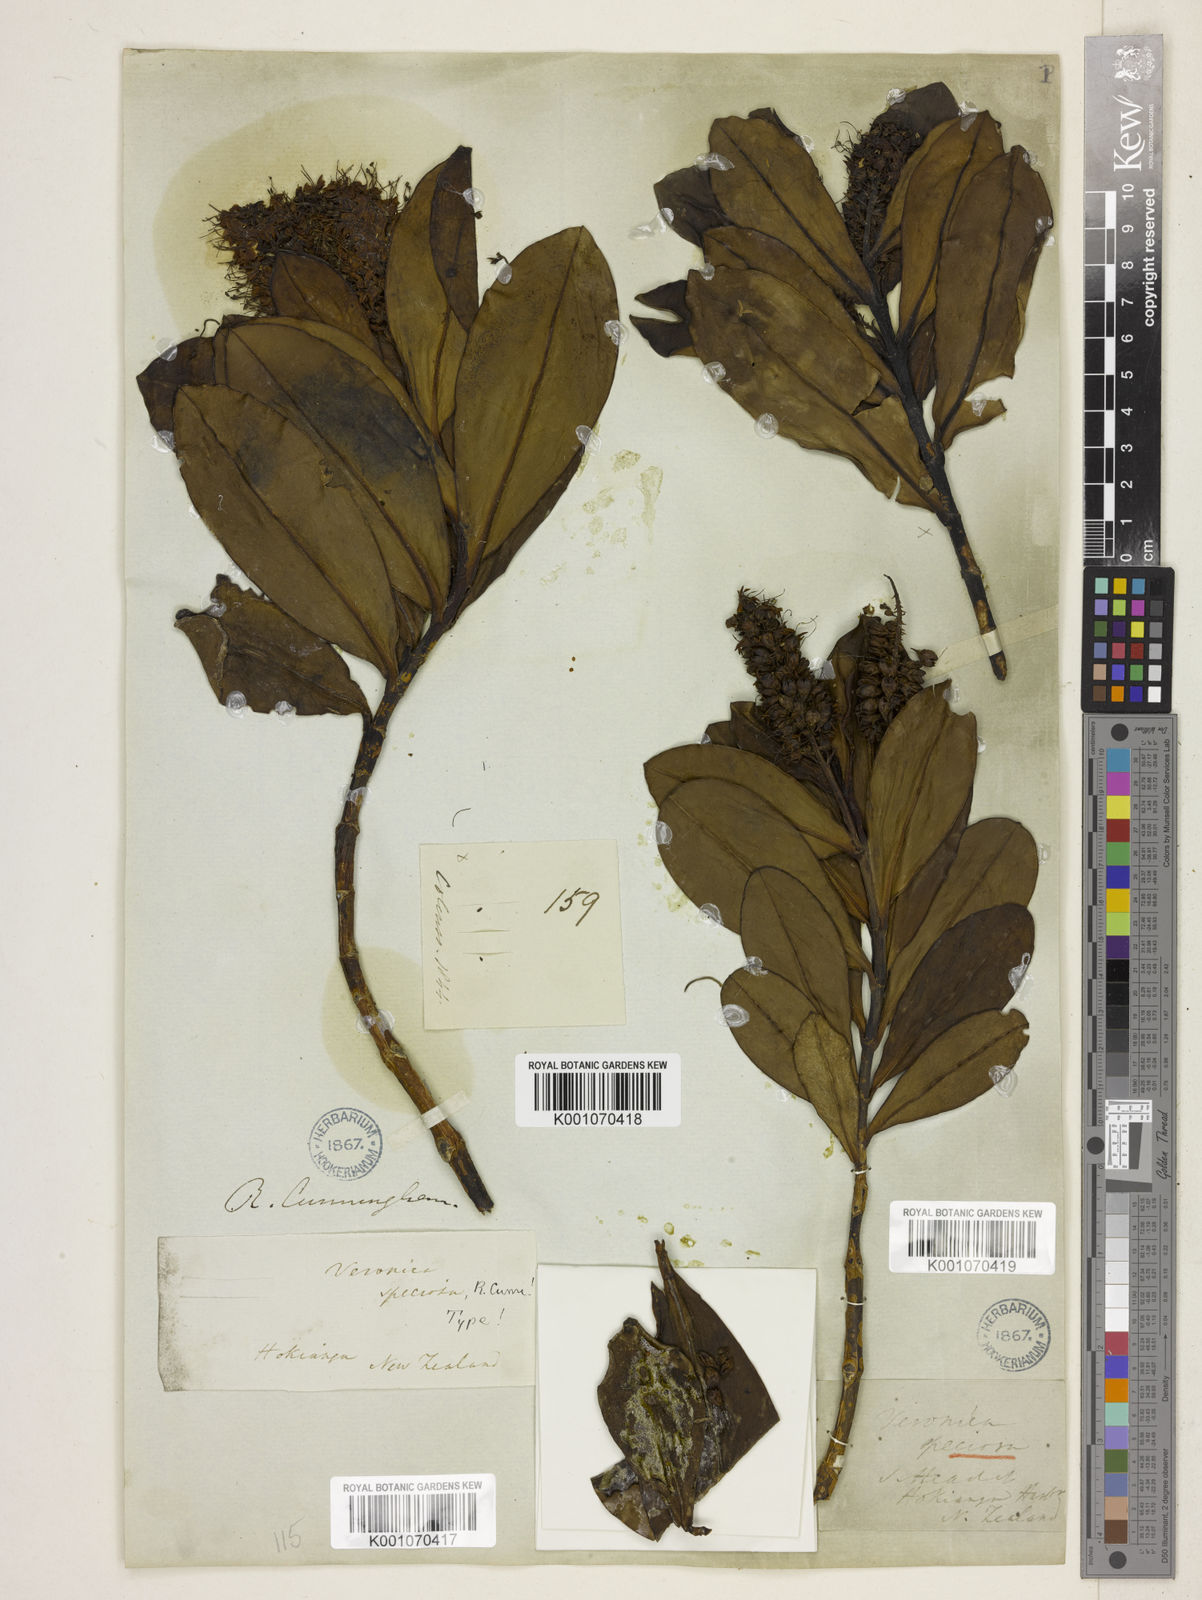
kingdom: Plantae
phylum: Tracheophyta
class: Magnoliopsida
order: Lamiales
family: Plantaginaceae
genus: Veronica
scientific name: Veronica speciosa
